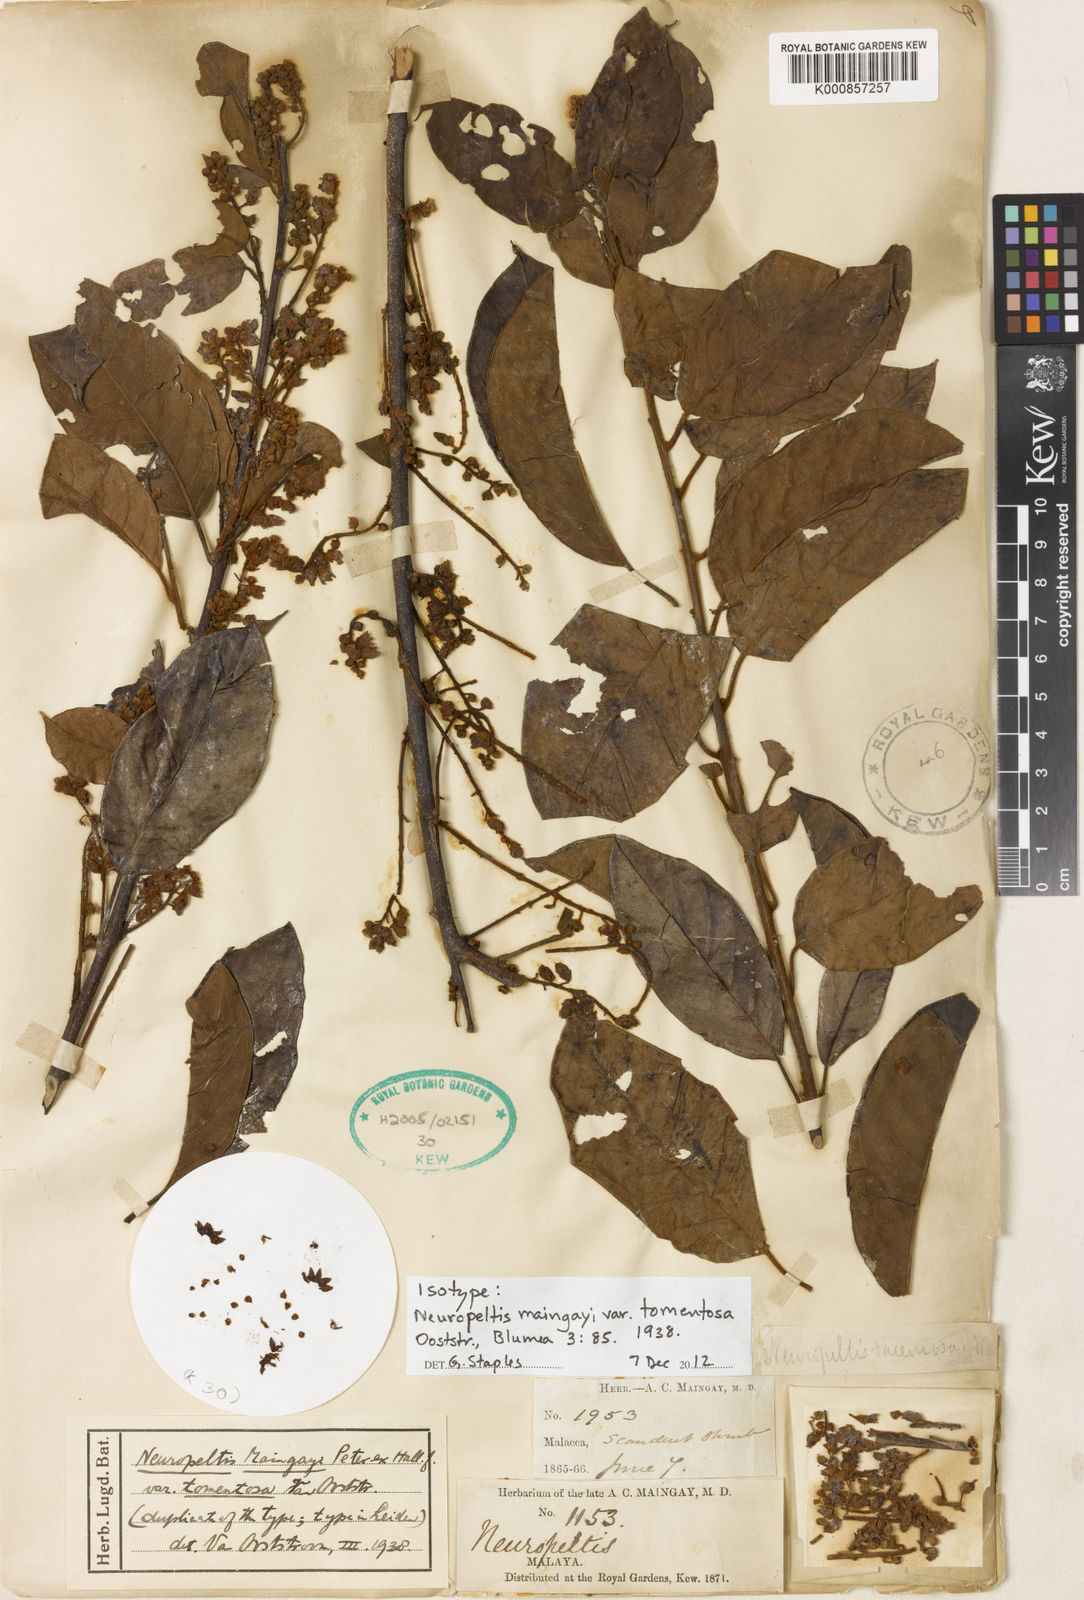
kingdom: Plantae
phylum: Tracheophyta
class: Magnoliopsida
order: Solanales
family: Convolvulaceae
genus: Argyreia
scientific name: Argyreia maingayi
